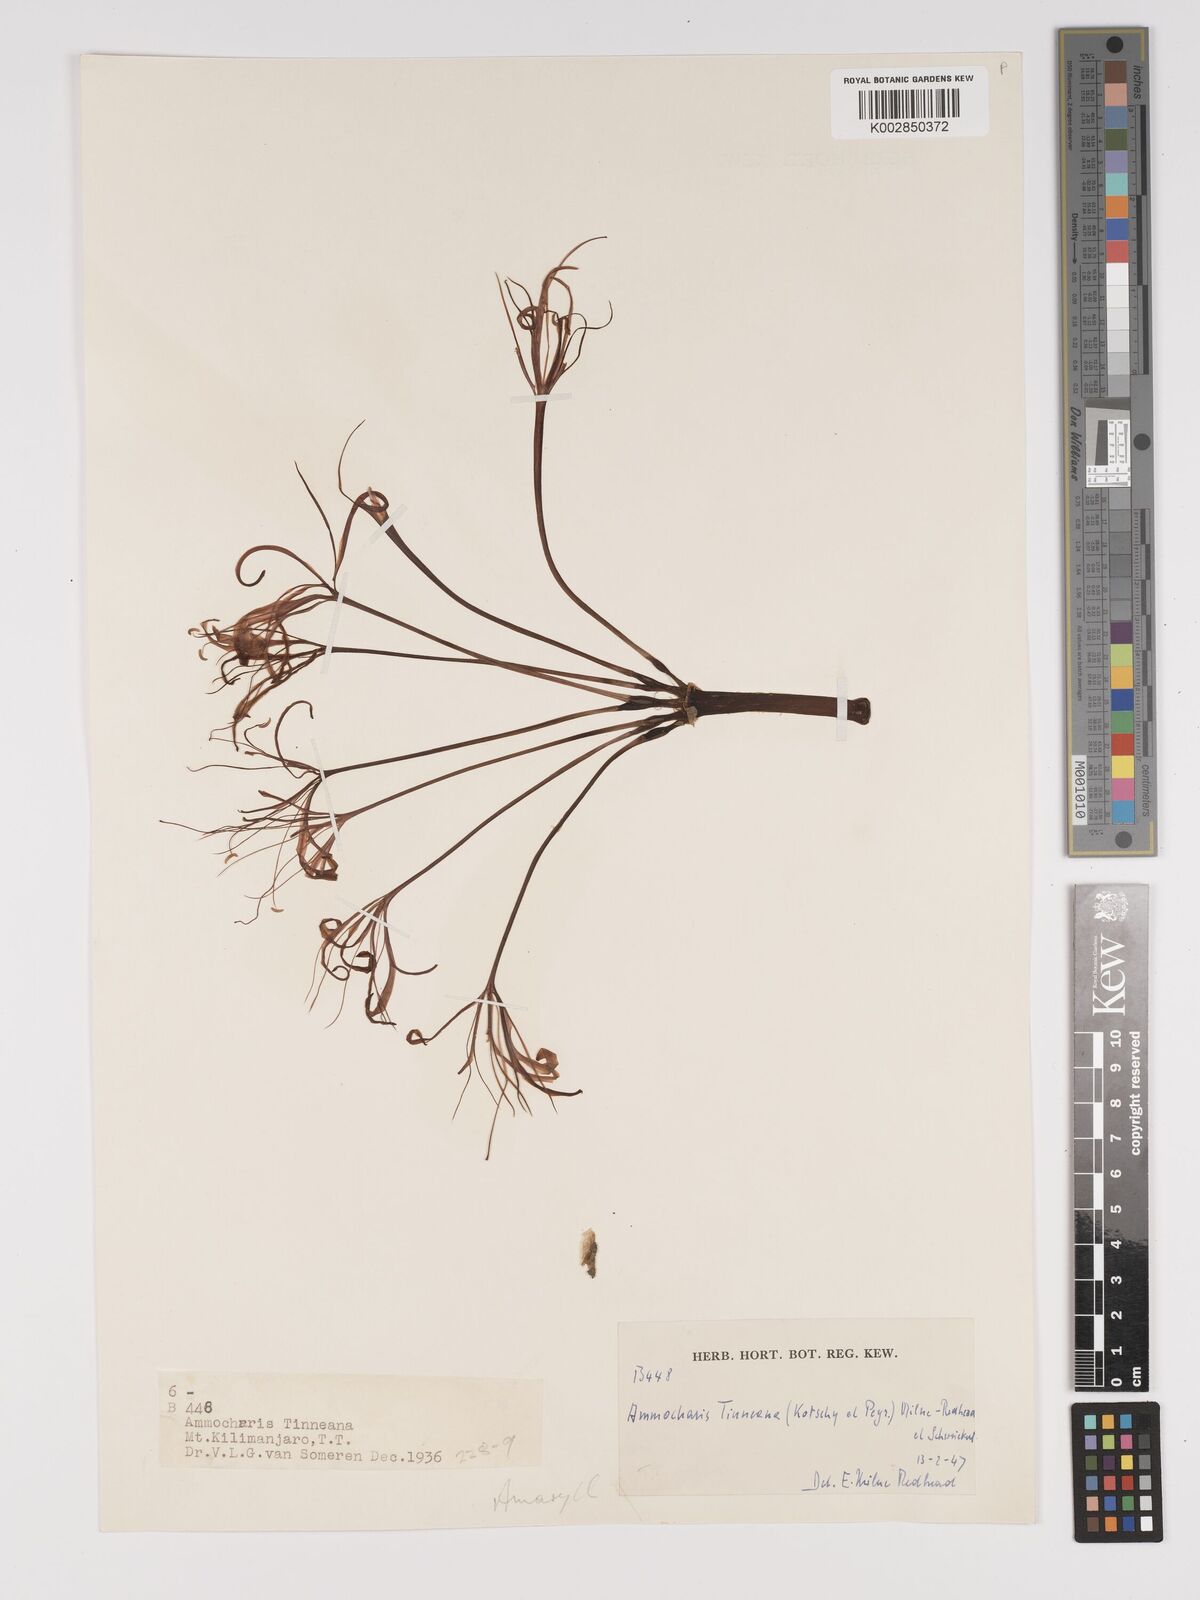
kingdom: Plantae
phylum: Tracheophyta
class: Liliopsida
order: Asparagales
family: Amaryllidaceae
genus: Ammocharis
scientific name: Ammocharis tinneana
